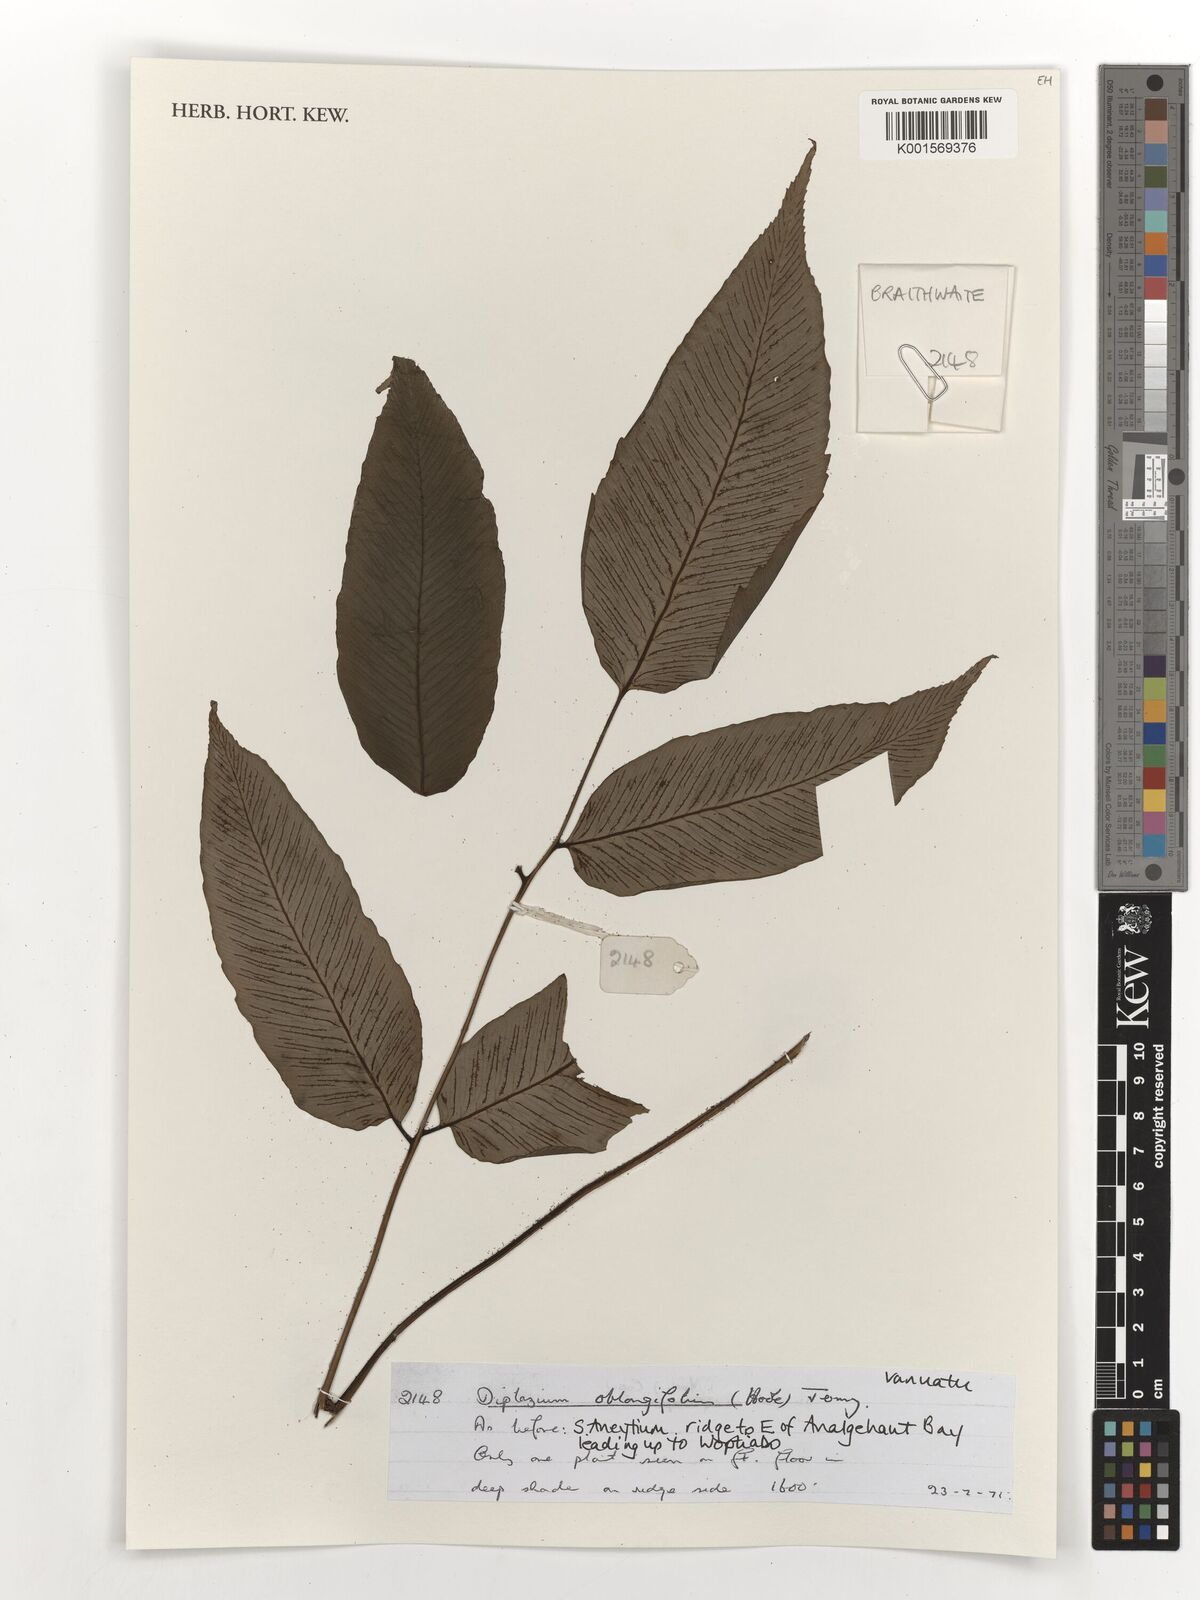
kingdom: Plantae
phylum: Tracheophyta
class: Polypodiopsida
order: Polypodiales
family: Athyriaceae
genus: Diplazium
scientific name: Diplazium oblongifolium
